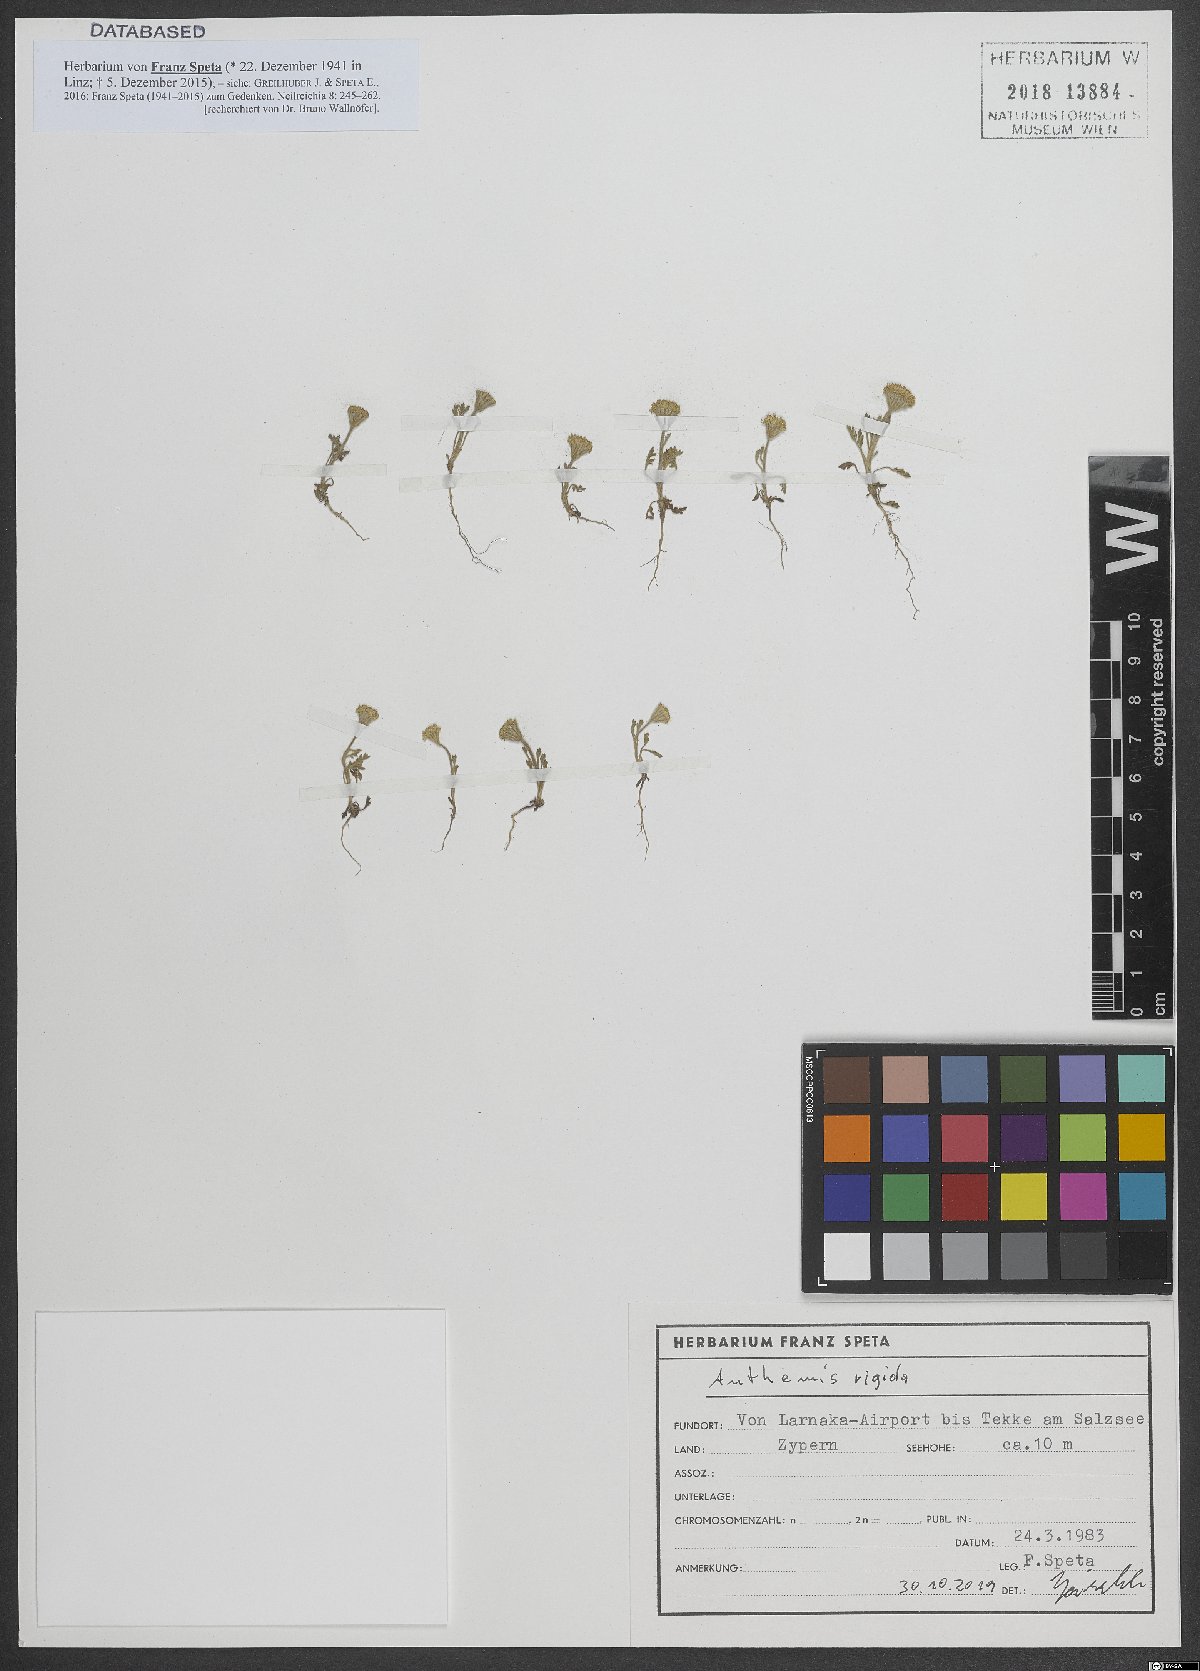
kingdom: Plantae
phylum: Tracheophyta
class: Magnoliopsida
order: Asterales
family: Asteraceae
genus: Anthemis
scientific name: Anthemis rigida
